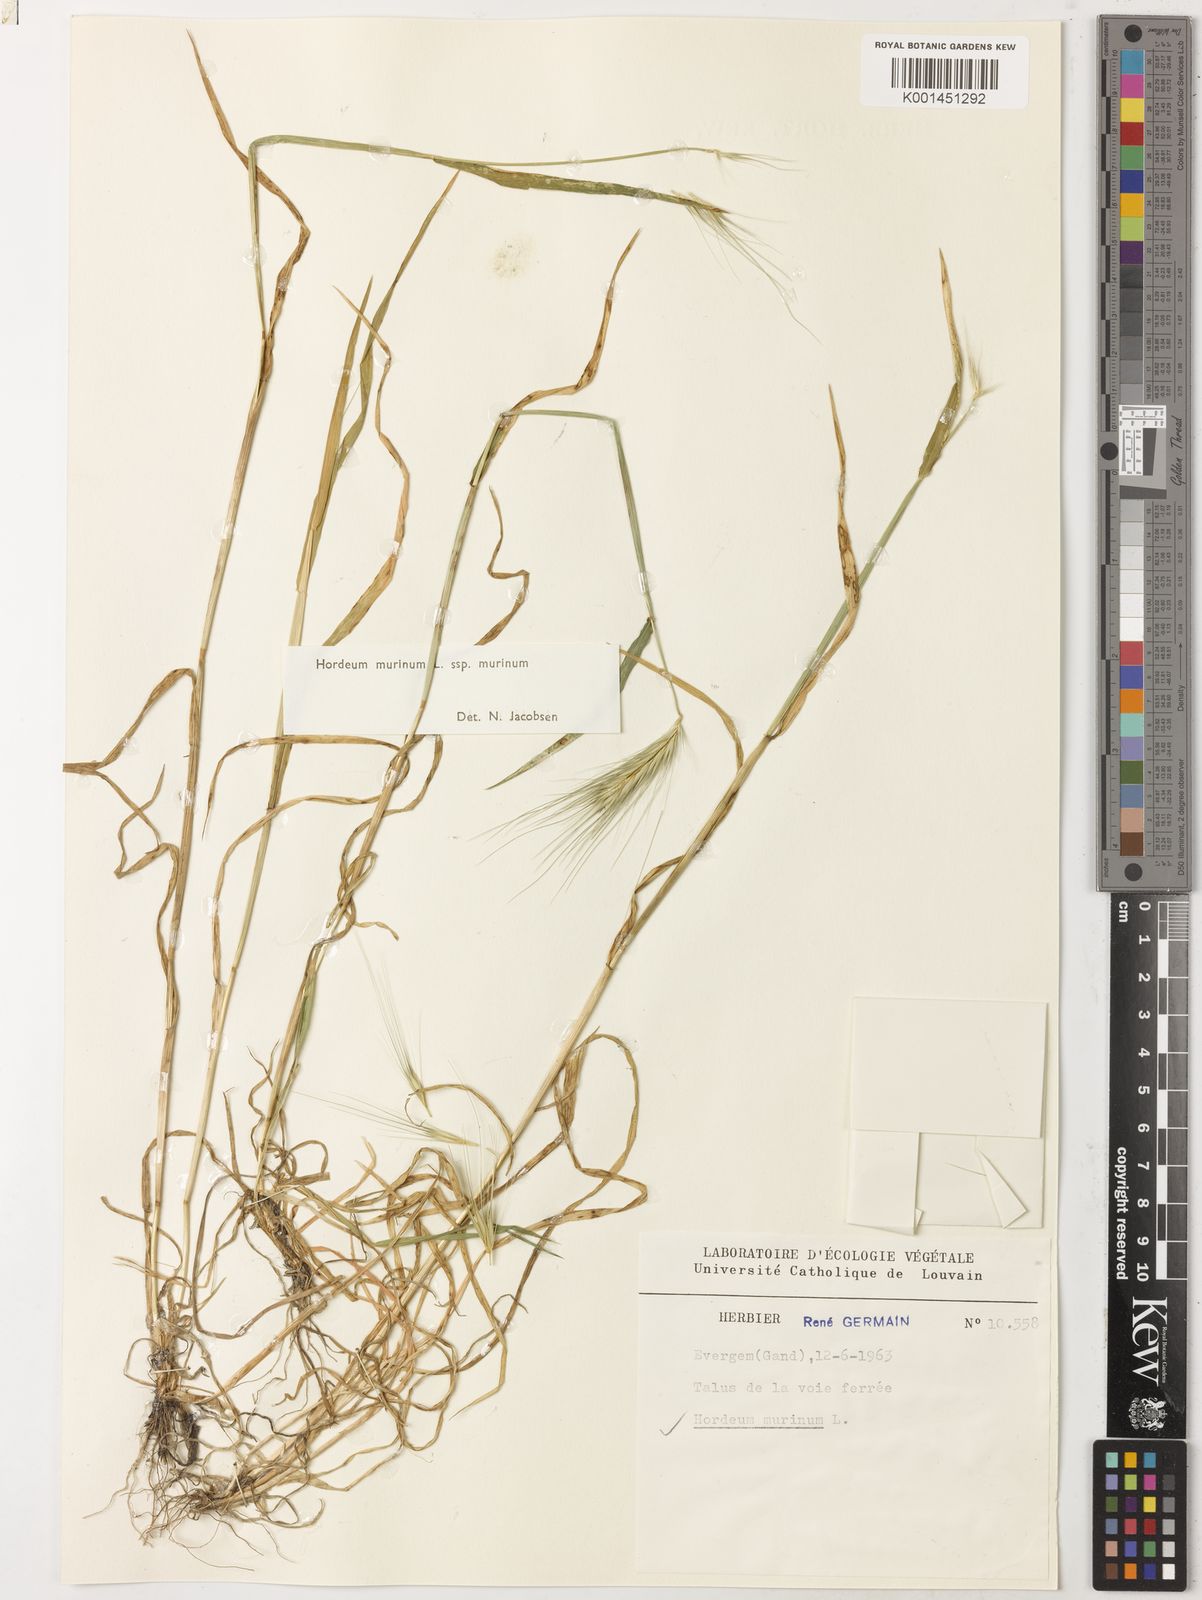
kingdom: Plantae
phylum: Tracheophyta
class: Liliopsida
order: Poales
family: Poaceae
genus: Hordeum
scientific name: Hordeum murinum
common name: Wall barley
